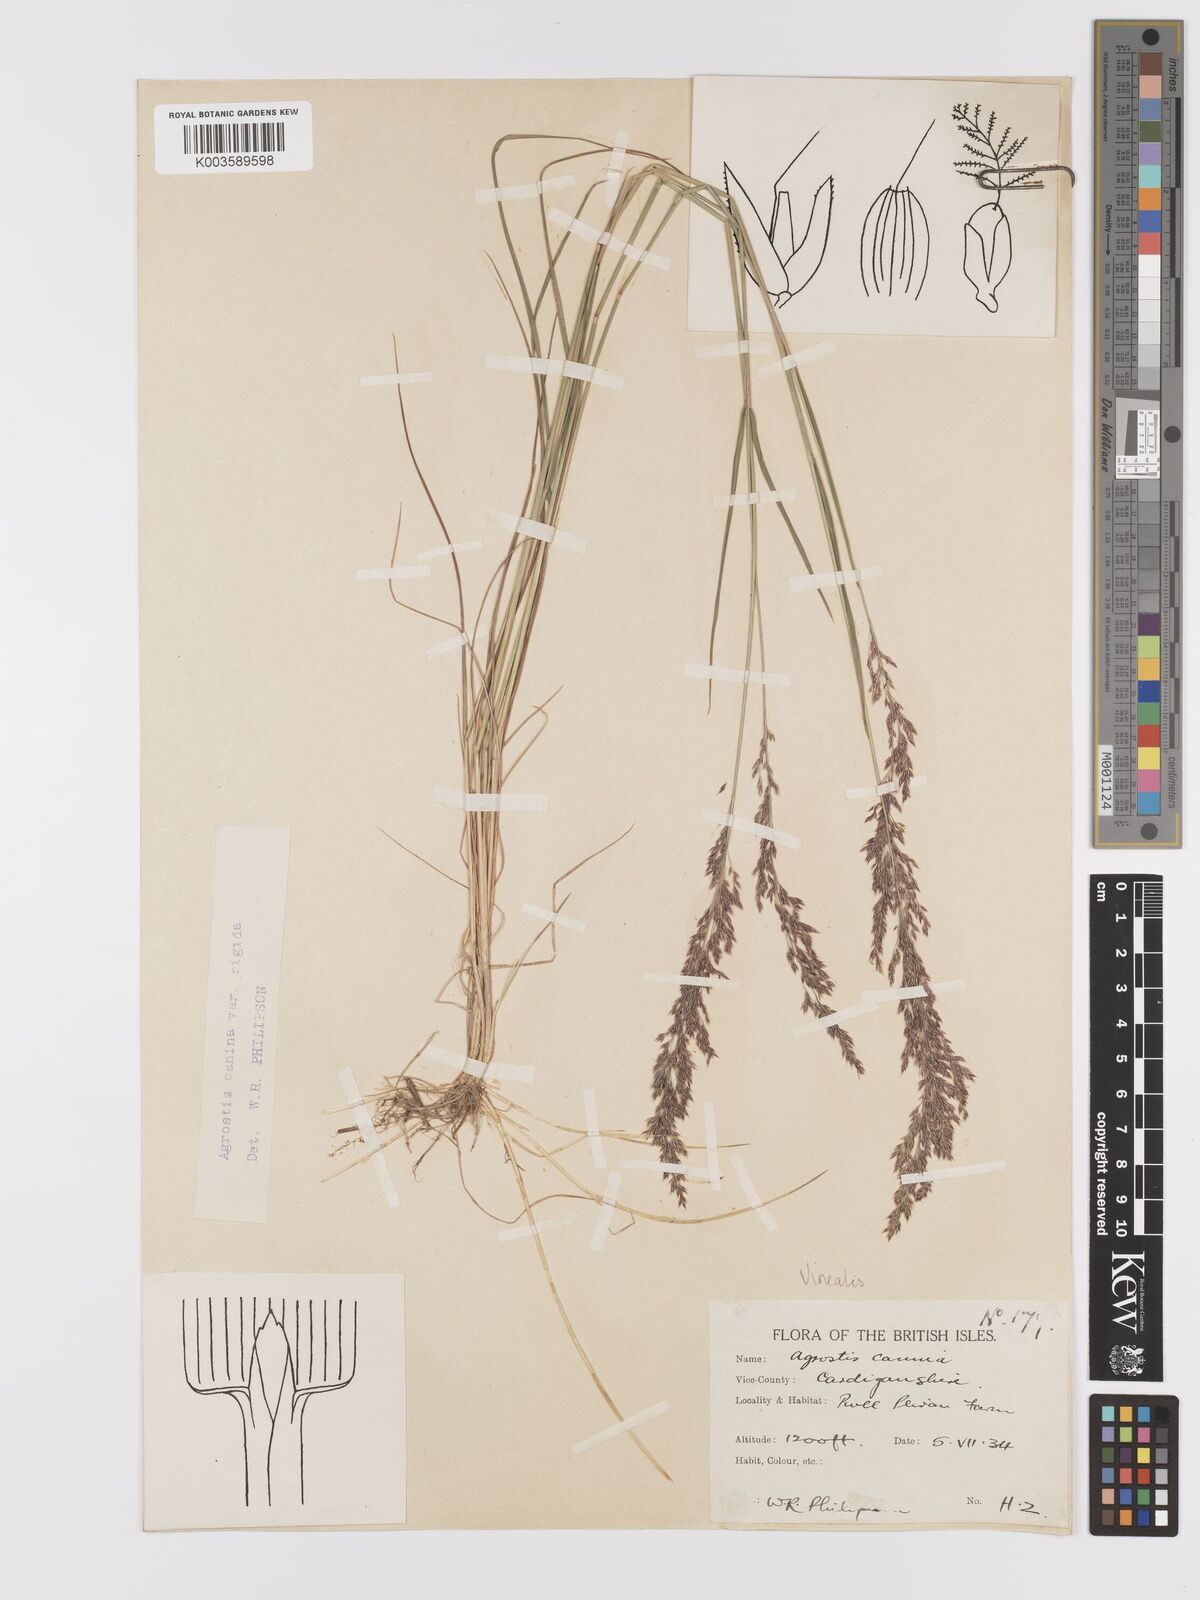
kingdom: Plantae
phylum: Tracheophyta
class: Liliopsida
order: Poales
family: Poaceae
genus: Agrostis
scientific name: Agrostis
